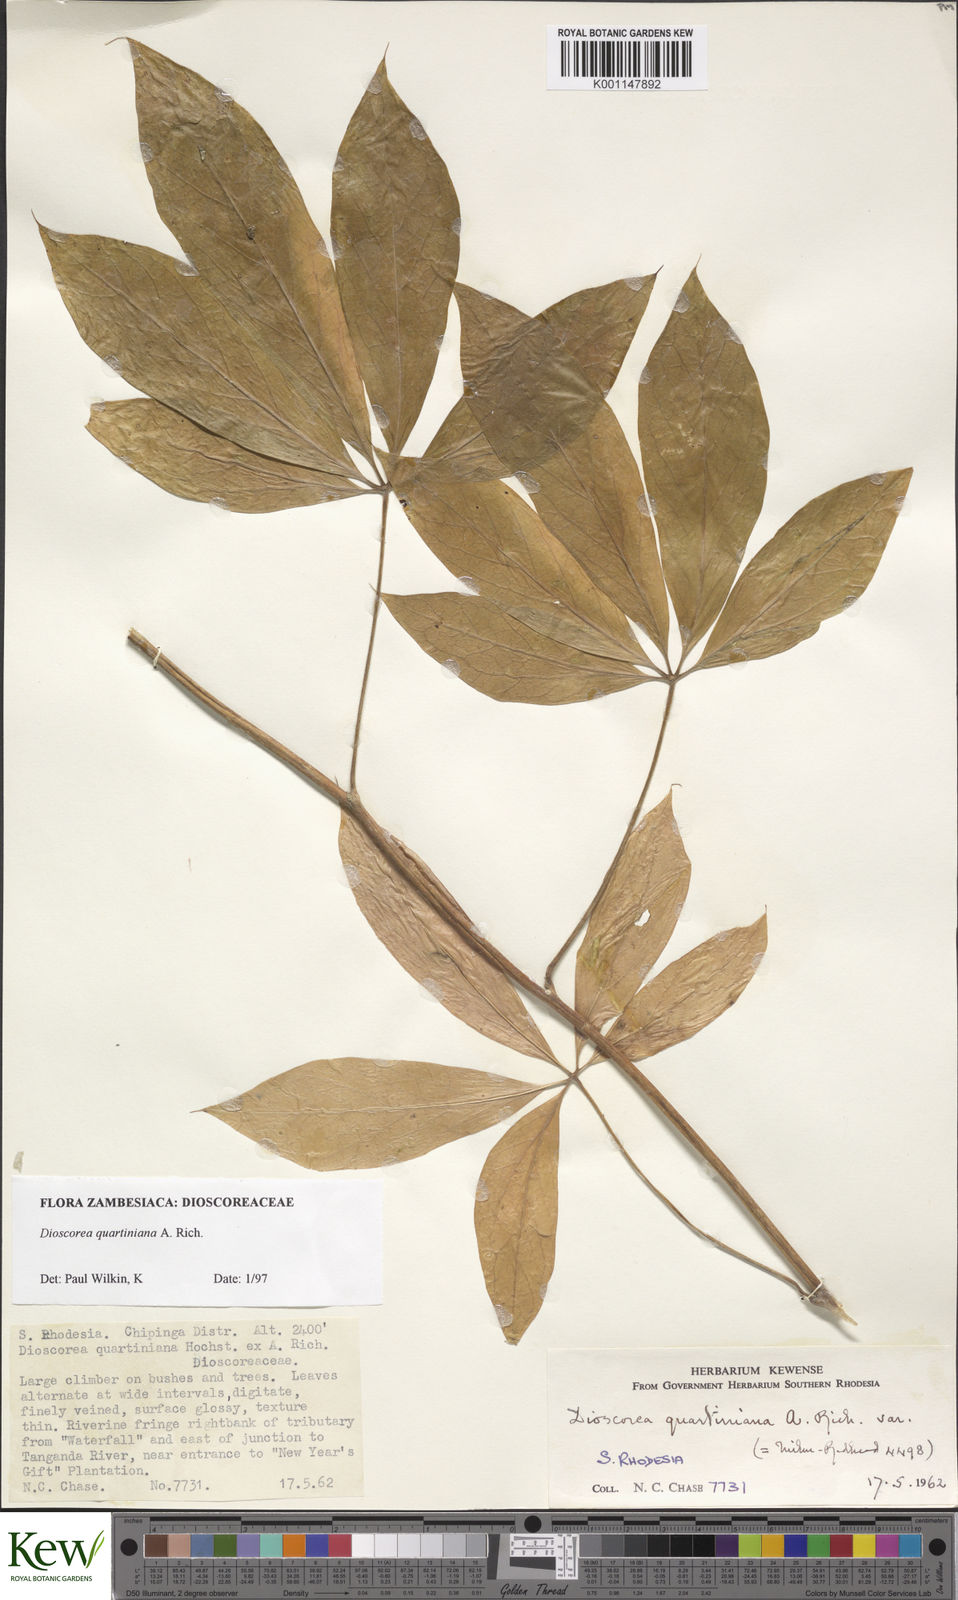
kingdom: Plantae
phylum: Tracheophyta
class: Liliopsida
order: Dioscoreales
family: Dioscoreaceae
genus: Dioscorea
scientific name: Dioscorea quartiniana
